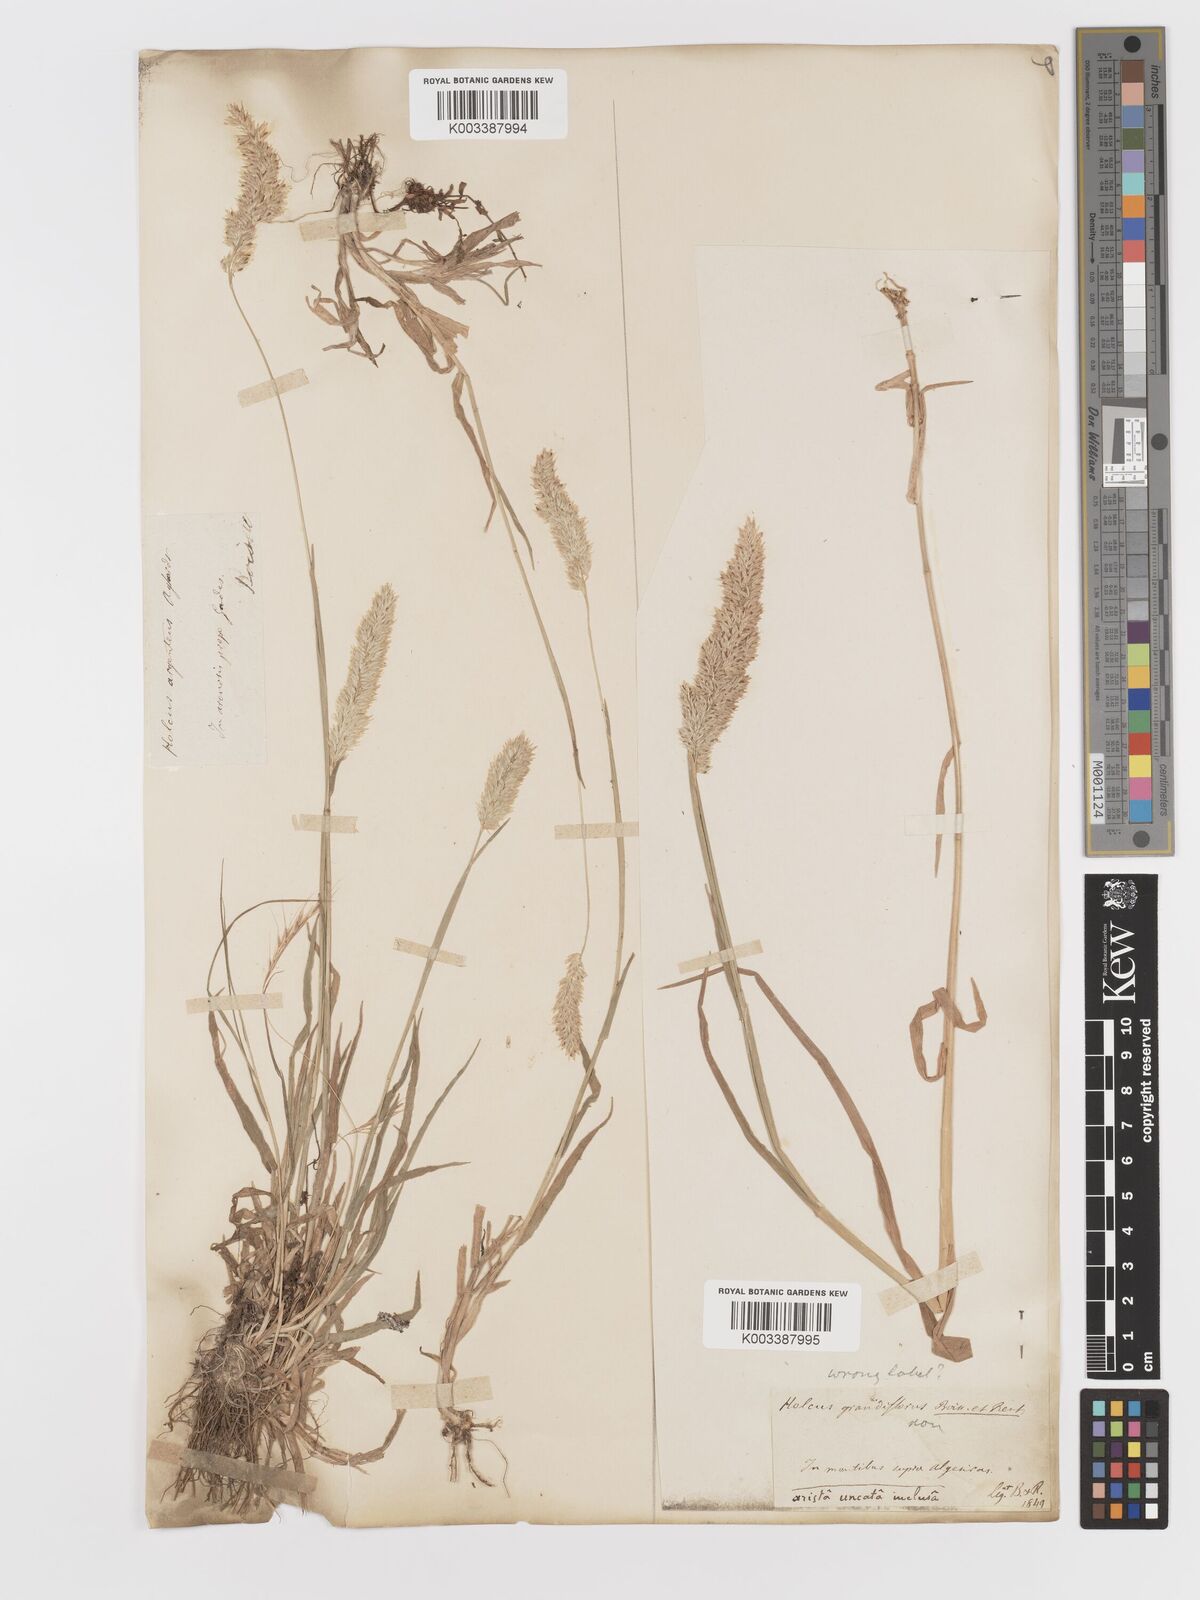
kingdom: Plantae
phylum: Tracheophyta
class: Liliopsida
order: Poales
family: Poaceae
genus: Holcus
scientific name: Holcus lanatus
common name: Yorkshire-fog
